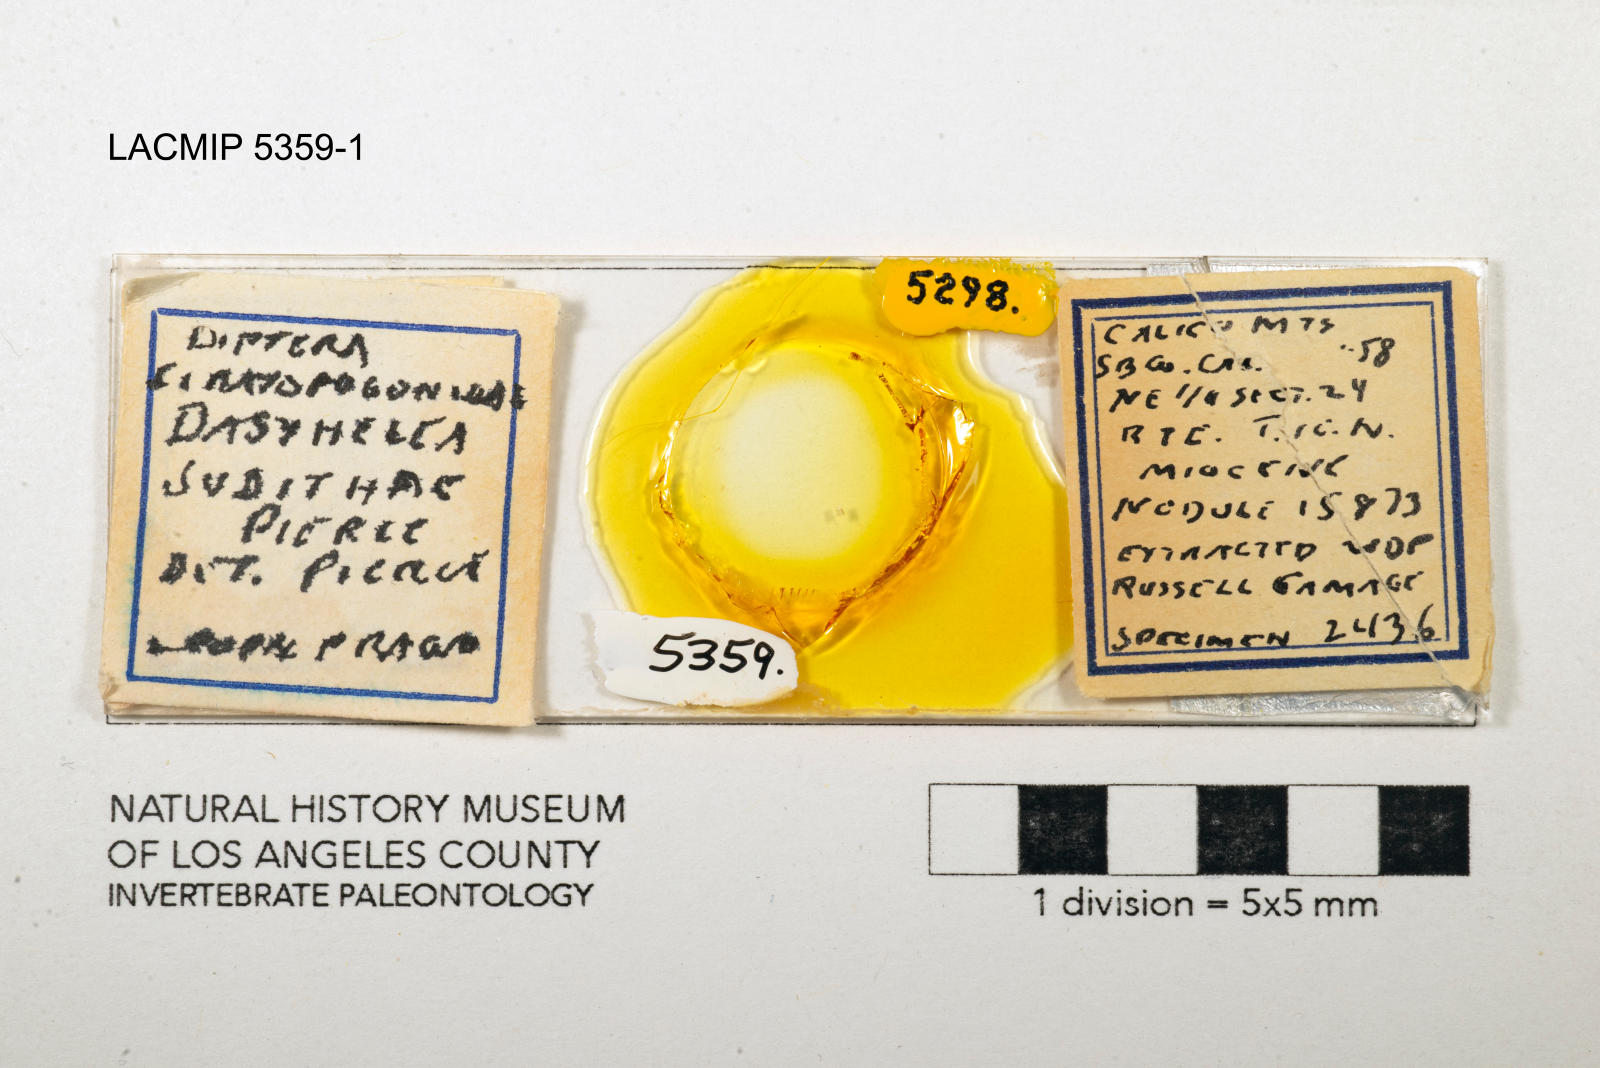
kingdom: Animalia
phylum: Arthropoda
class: Insecta
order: Diptera
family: Ceratopogonidae
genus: Dasyhelea
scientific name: Dasyhelea judithae
